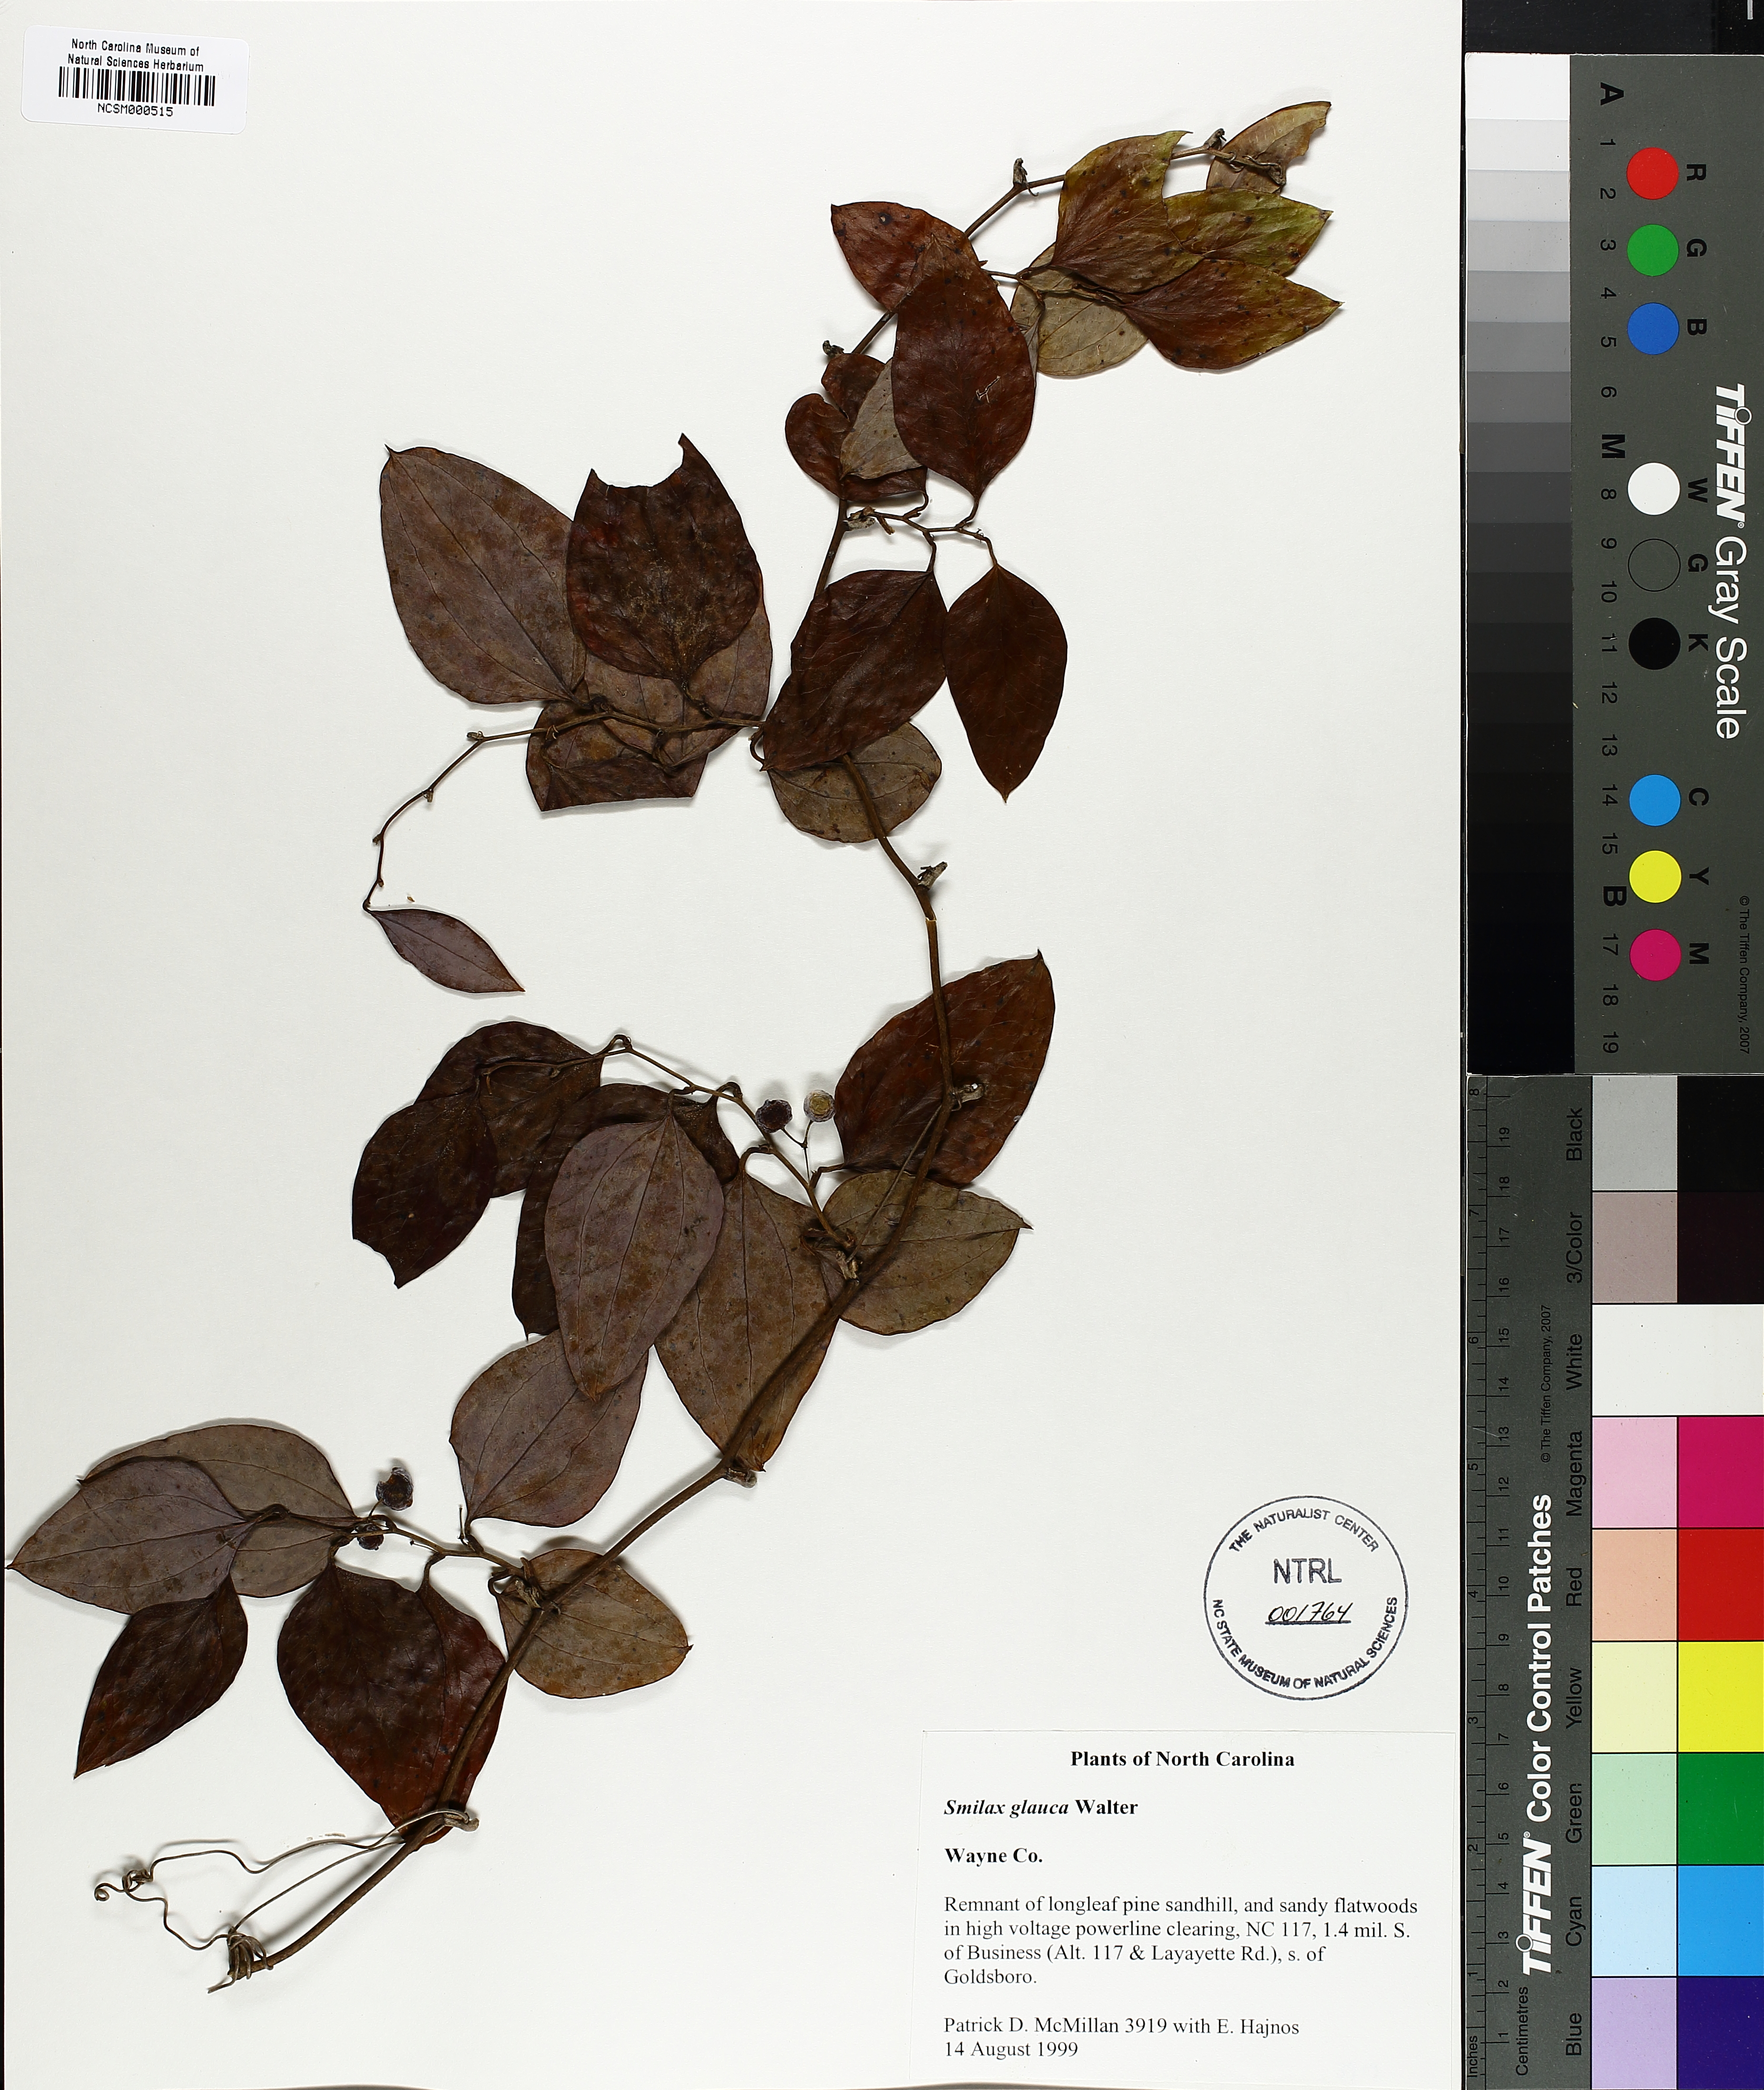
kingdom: Plantae
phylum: Tracheophyta
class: Liliopsida
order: Liliales
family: Smilacaceae
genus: Smilax
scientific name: Smilax glauca
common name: Cat greenbrier
